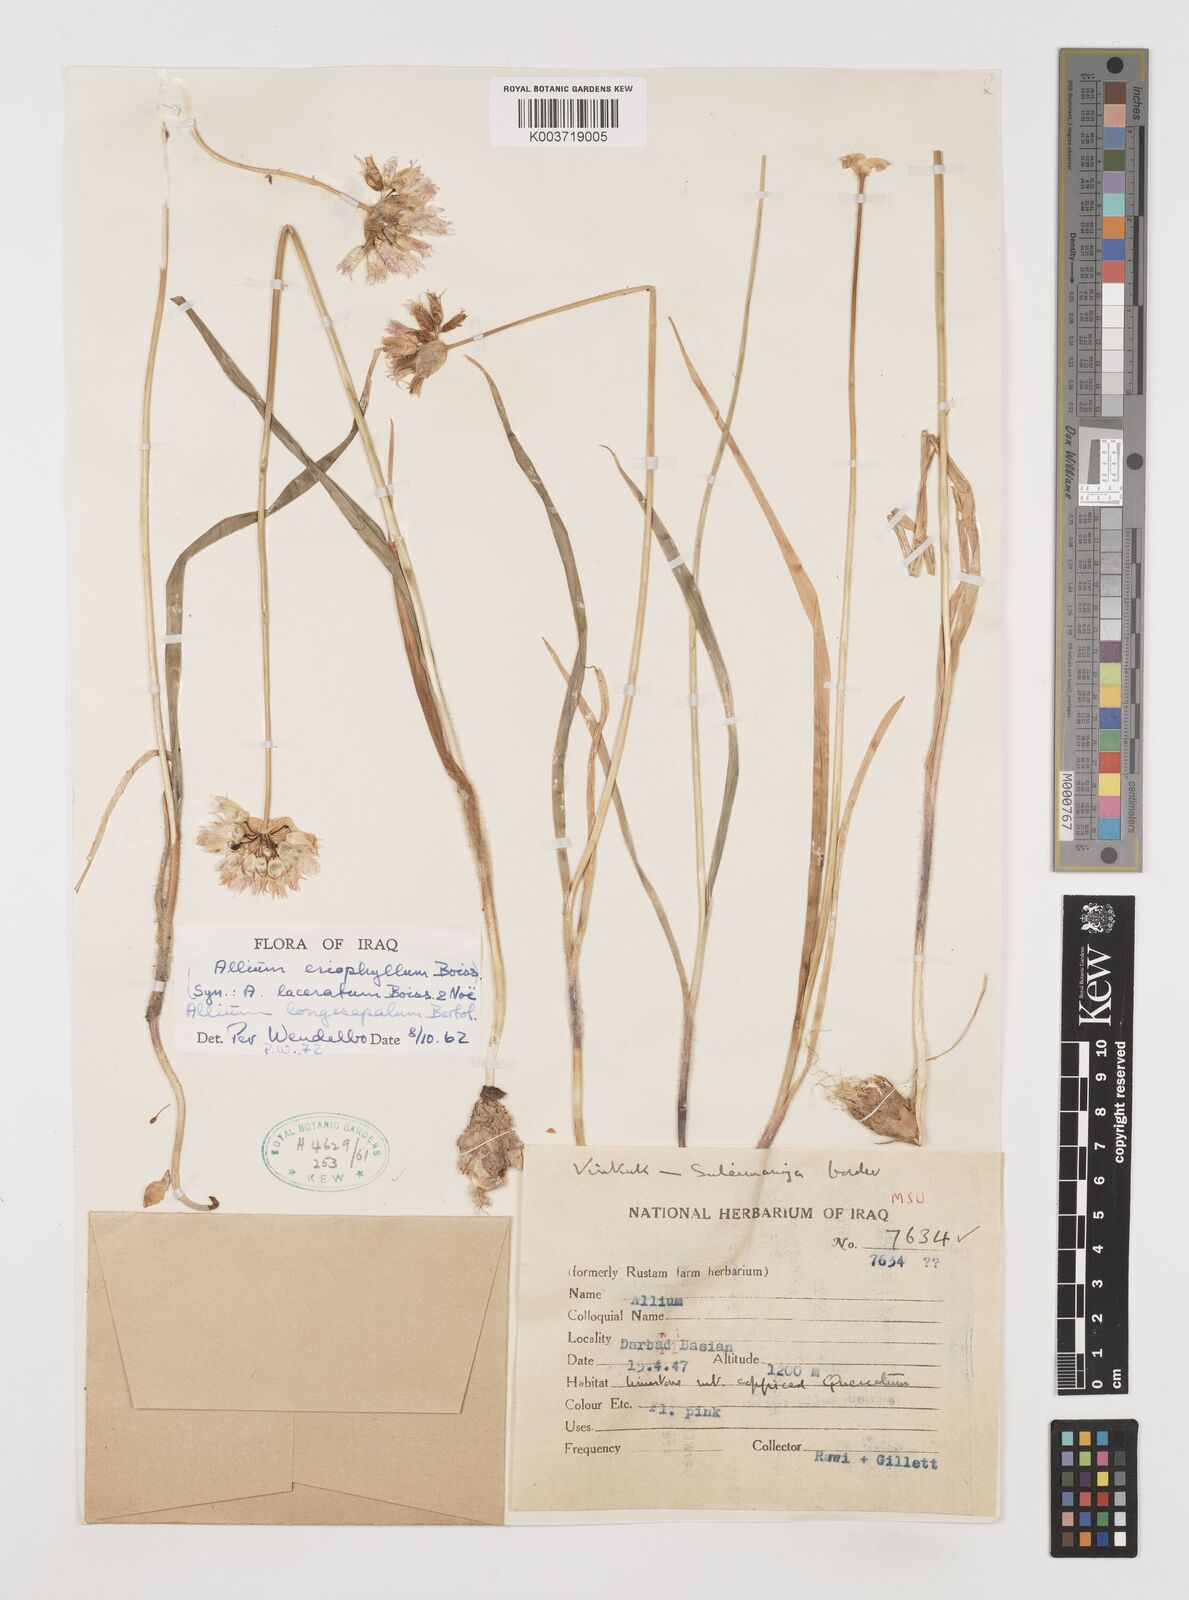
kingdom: Plantae
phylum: Tracheophyta
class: Liliopsida
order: Asparagales
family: Amaryllidaceae
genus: Allium
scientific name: Allium longisepalum
